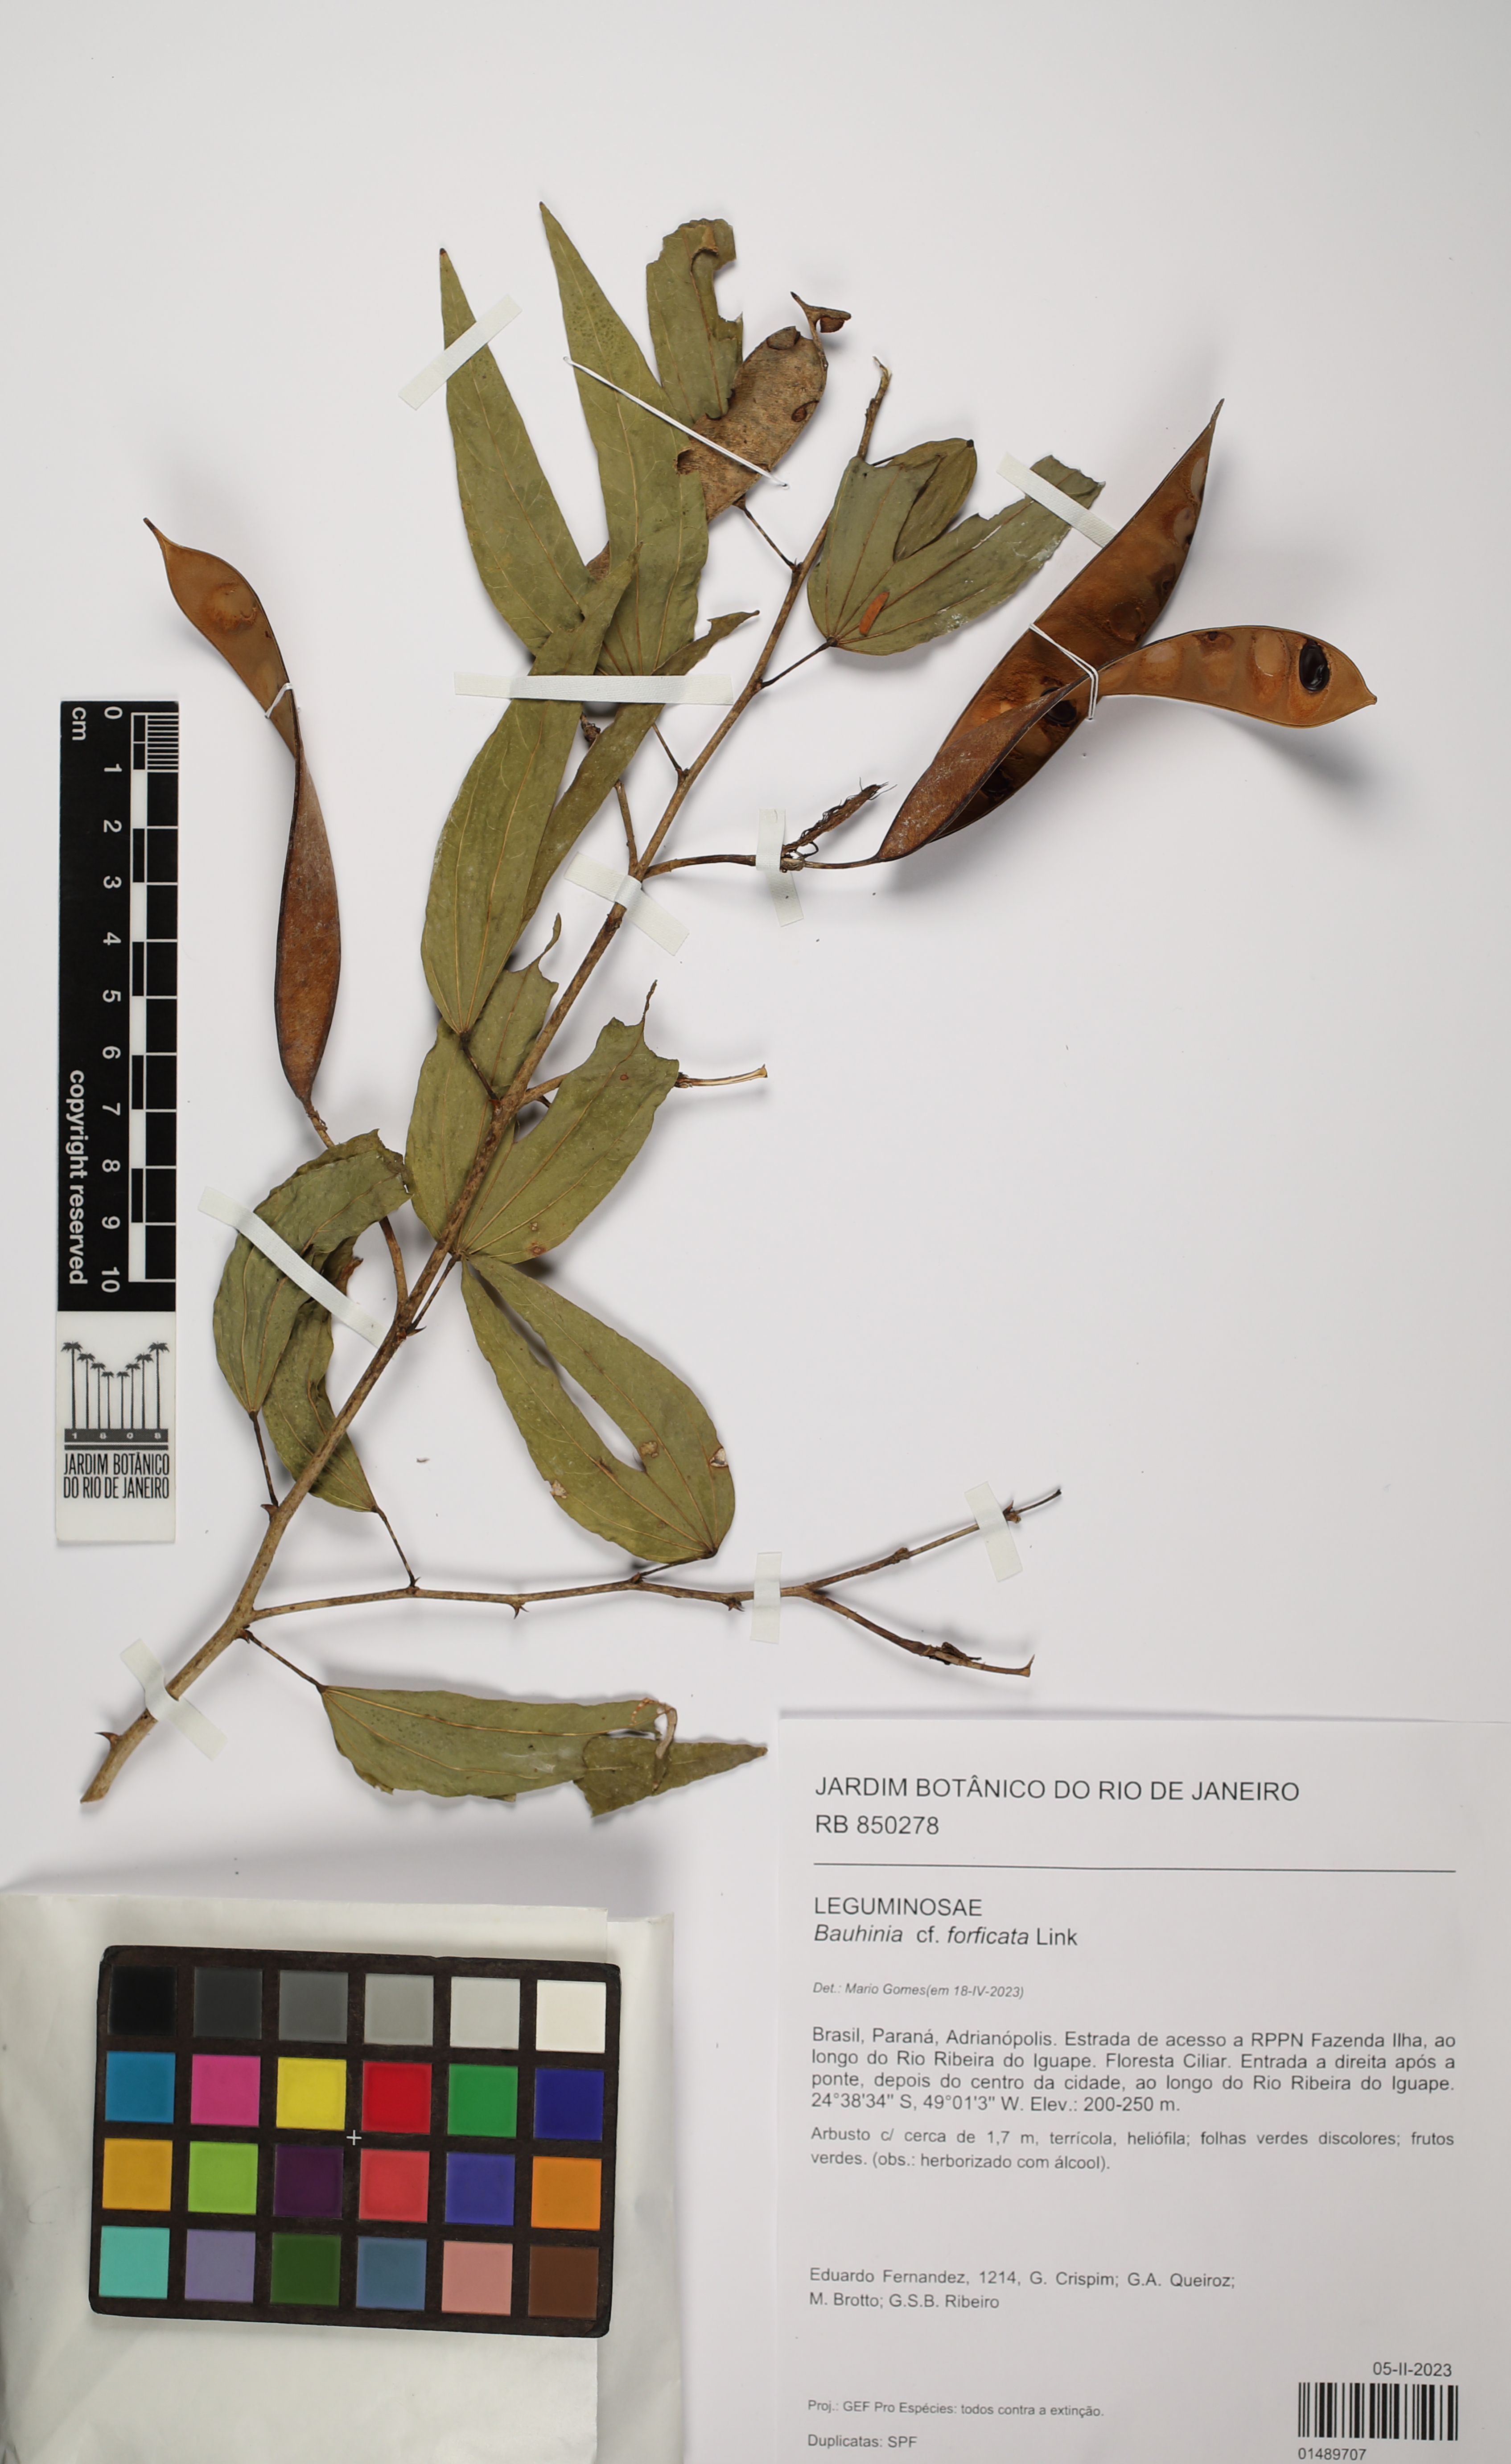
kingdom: Plantae
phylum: Tracheophyta
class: Magnoliopsida
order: Fabales
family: Fabaceae
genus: Bauhinia
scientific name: Bauhinia forficata
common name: Orchid tree
